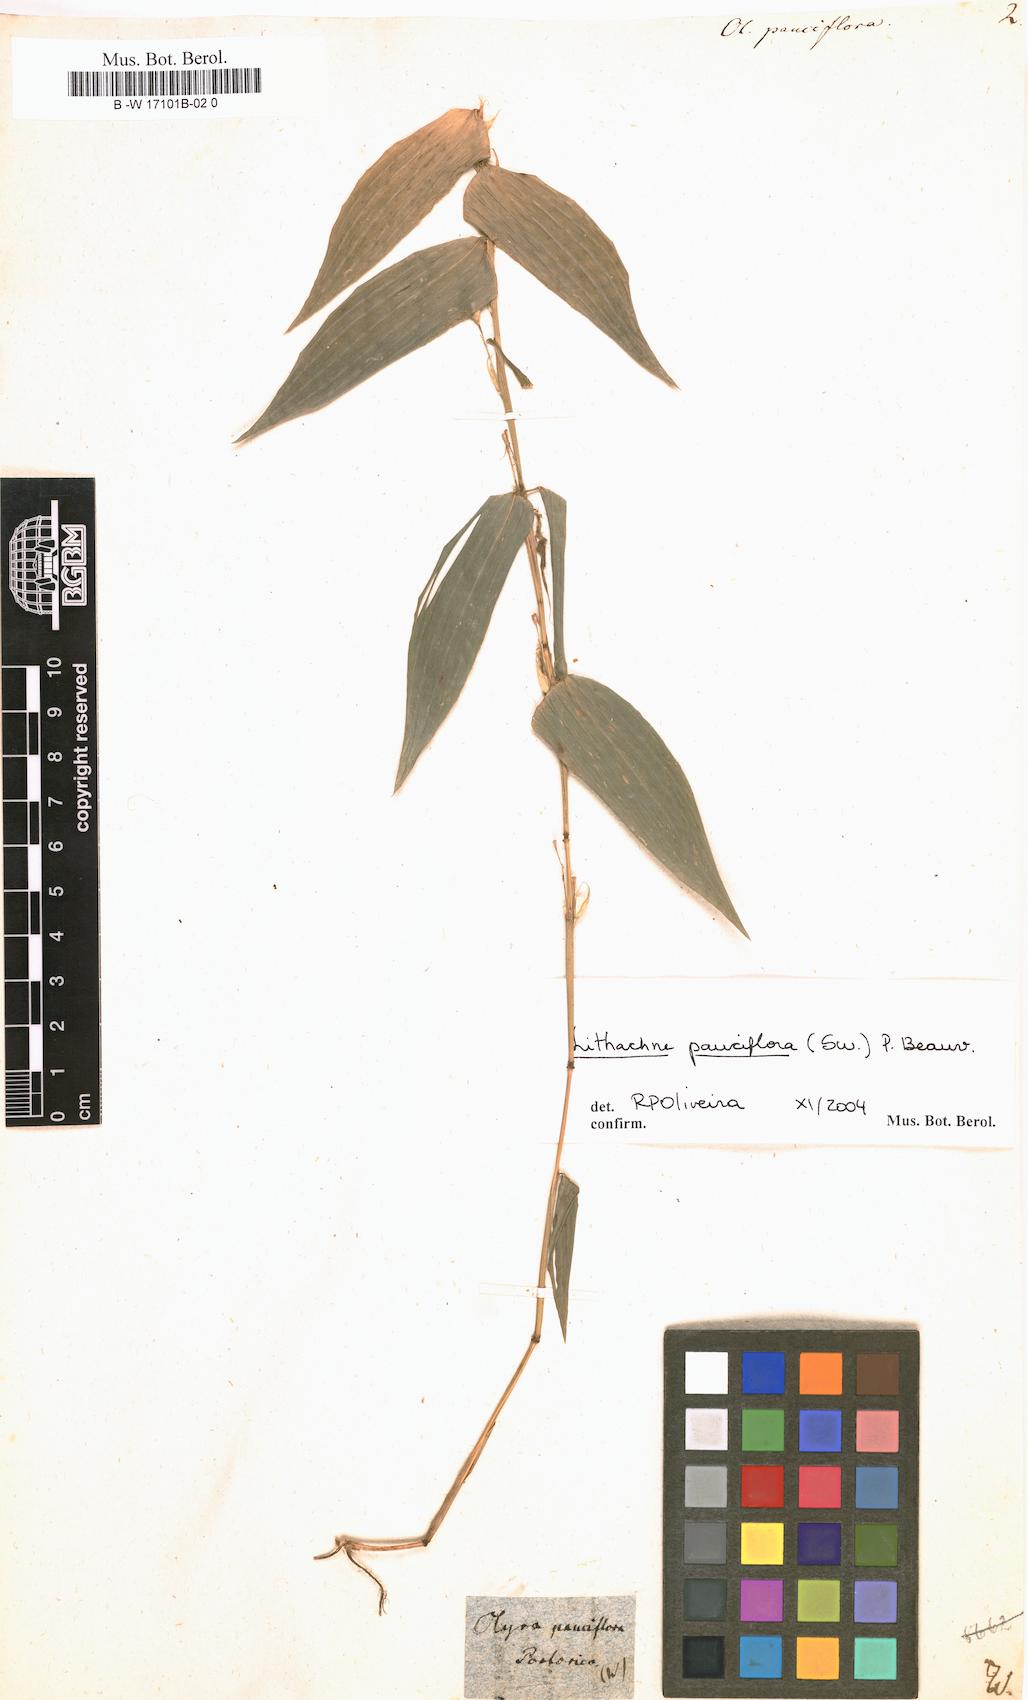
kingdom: Plantae
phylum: Tracheophyta
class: Liliopsida
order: Poales
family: Poaceae
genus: Lithachne
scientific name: Lithachne pauciflora
